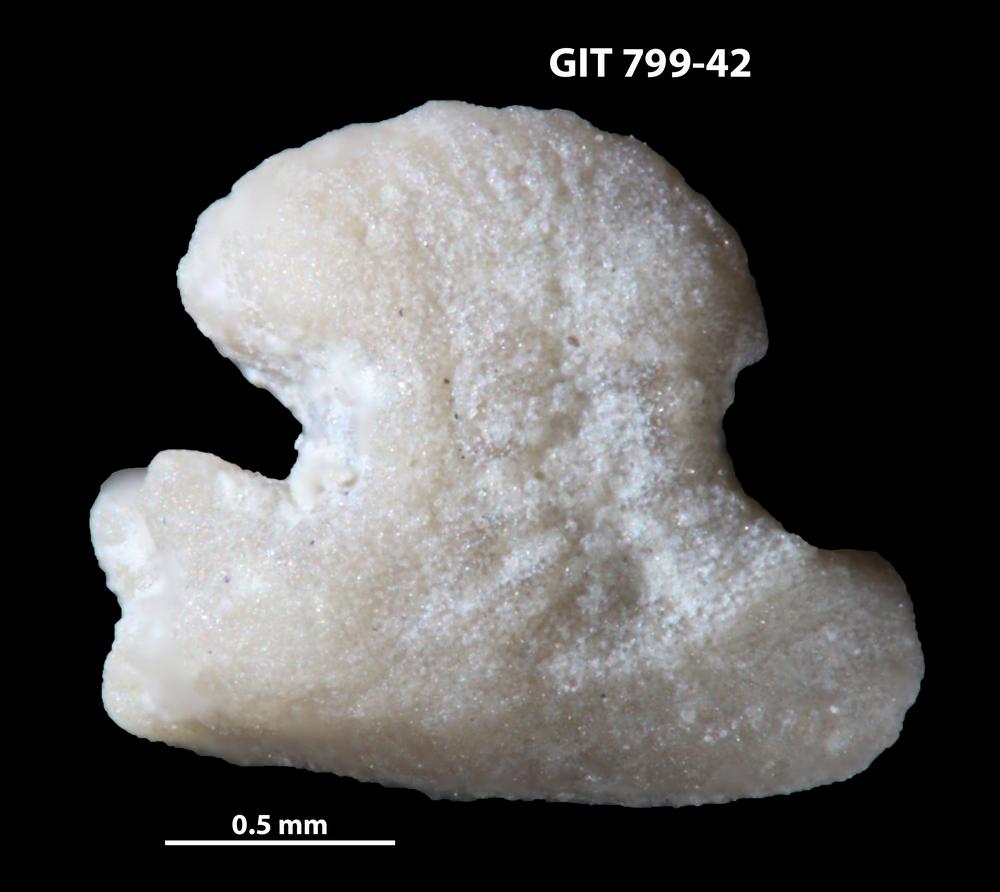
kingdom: Animalia
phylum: Echinodermata
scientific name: Echinodermata
